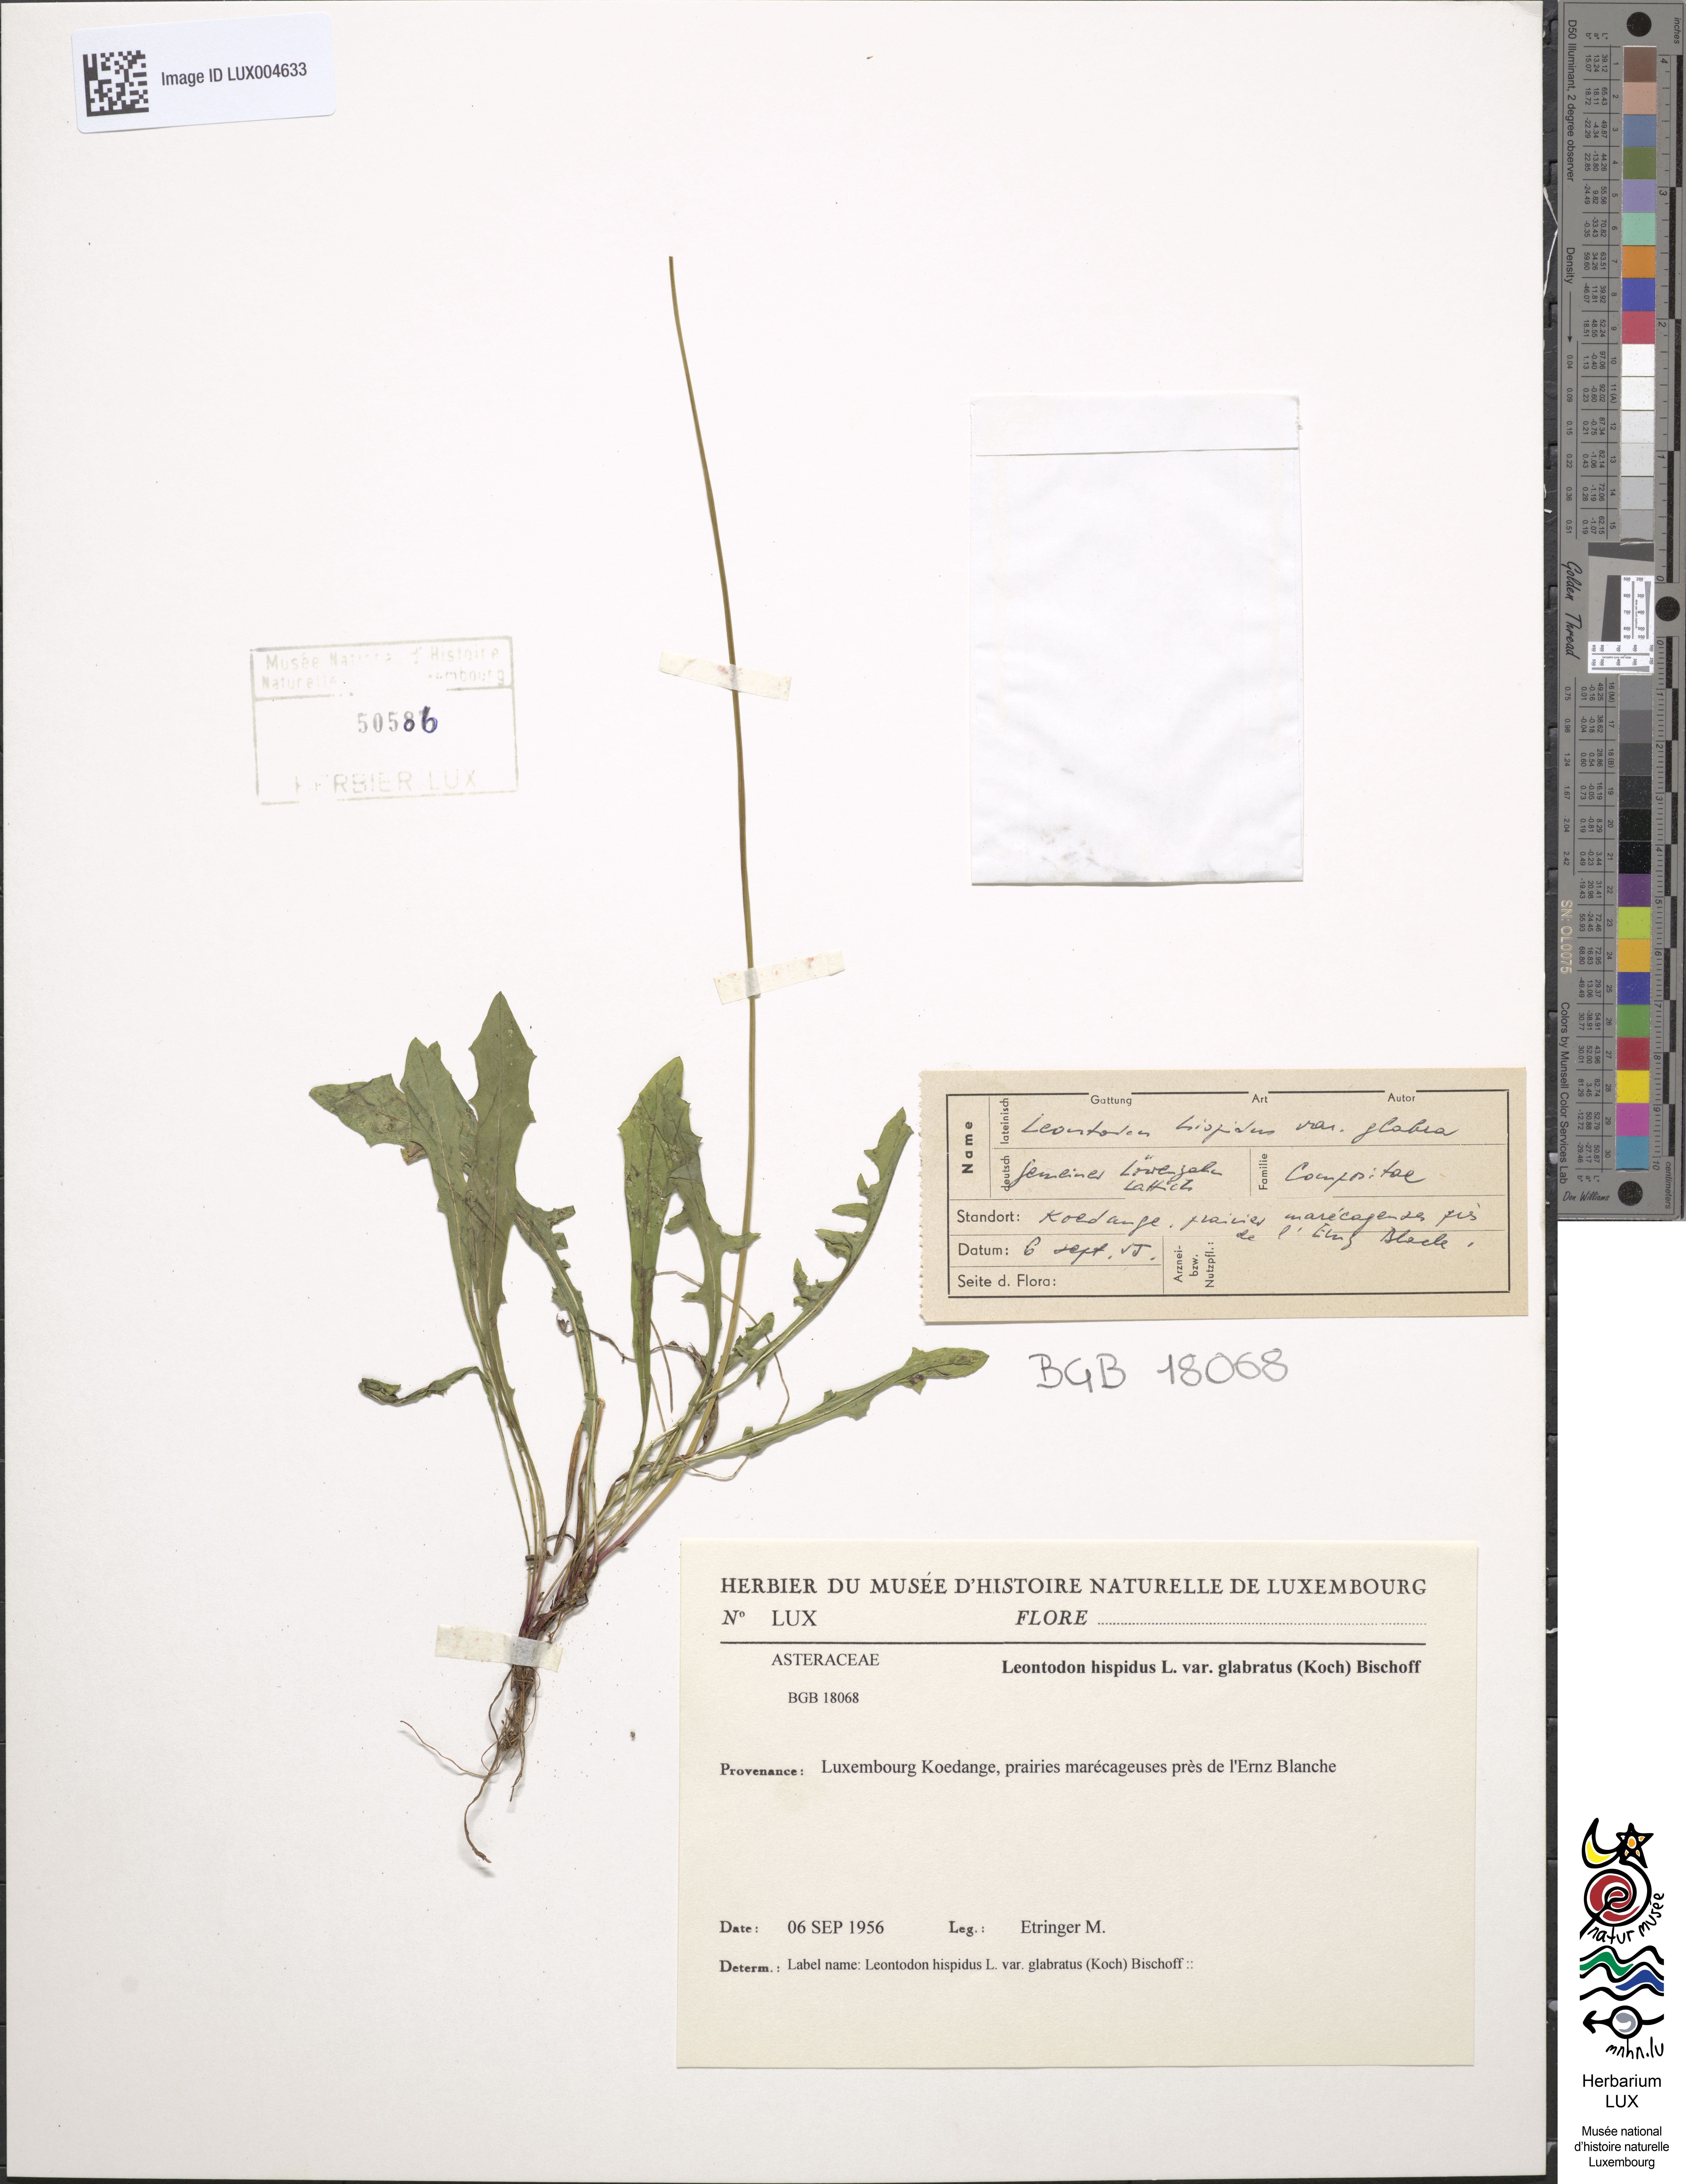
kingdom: Plantae
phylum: Tracheophyta
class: Magnoliopsida
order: Asterales
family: Asteraceae
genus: Leontodon
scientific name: Leontodon hispidus
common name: Rough hawkbit
